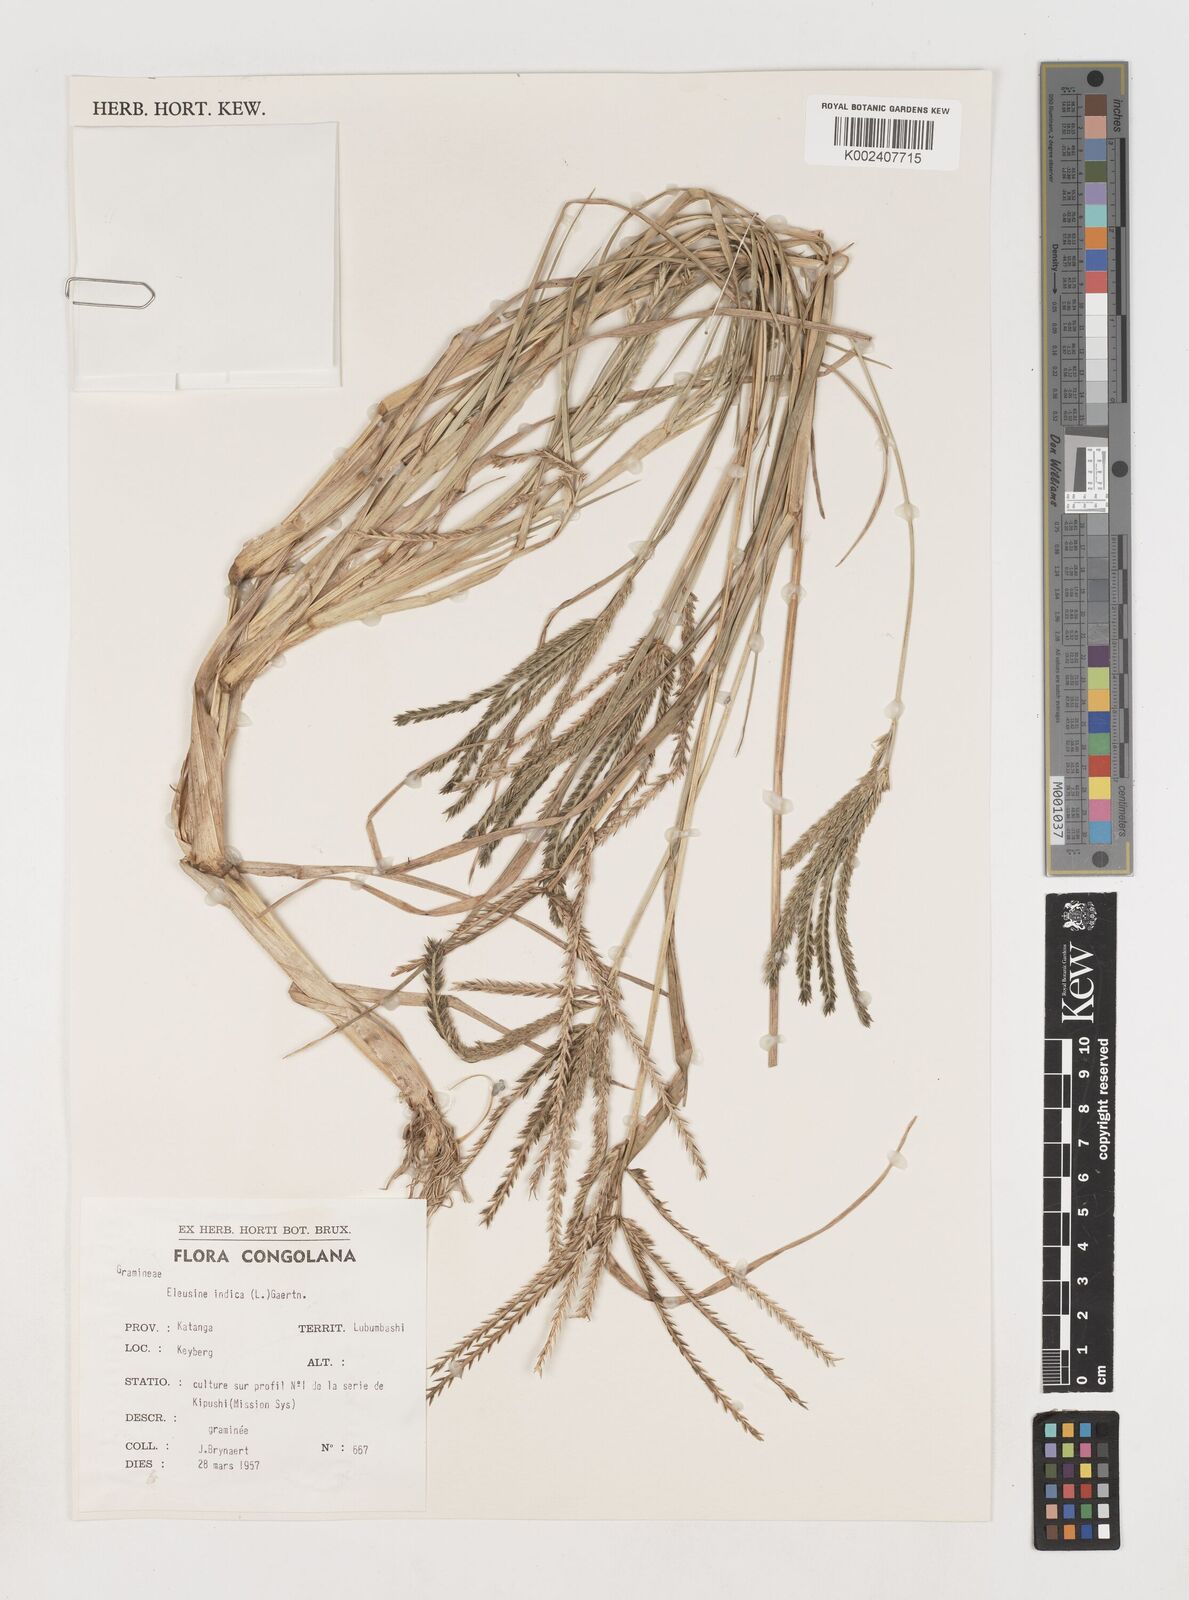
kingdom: Plantae
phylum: Tracheophyta
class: Liliopsida
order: Poales
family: Poaceae
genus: Eleusine
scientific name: Eleusine indica
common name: Yard-grass
